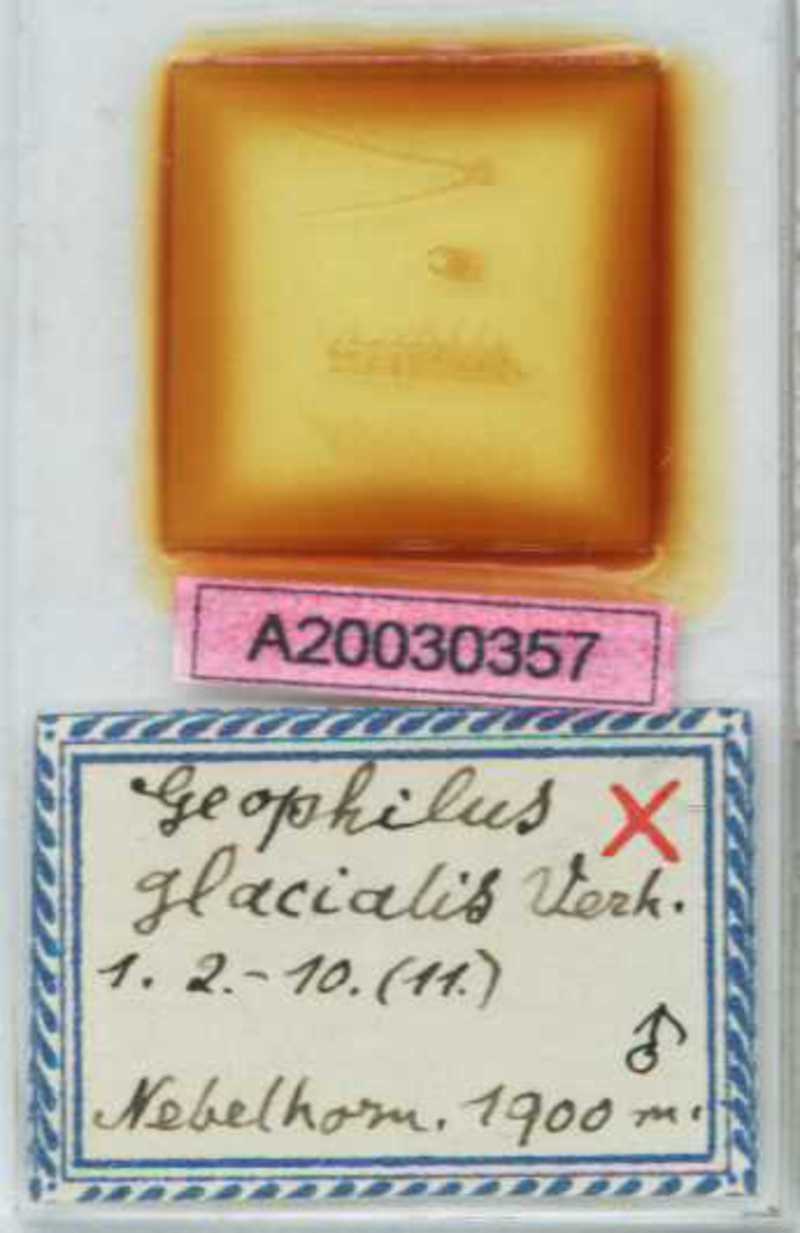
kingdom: Animalia
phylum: Arthropoda
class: Chilopoda
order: Geophilomorpha
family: Geophilidae
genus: Geophilus
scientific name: Geophilus insculptus
